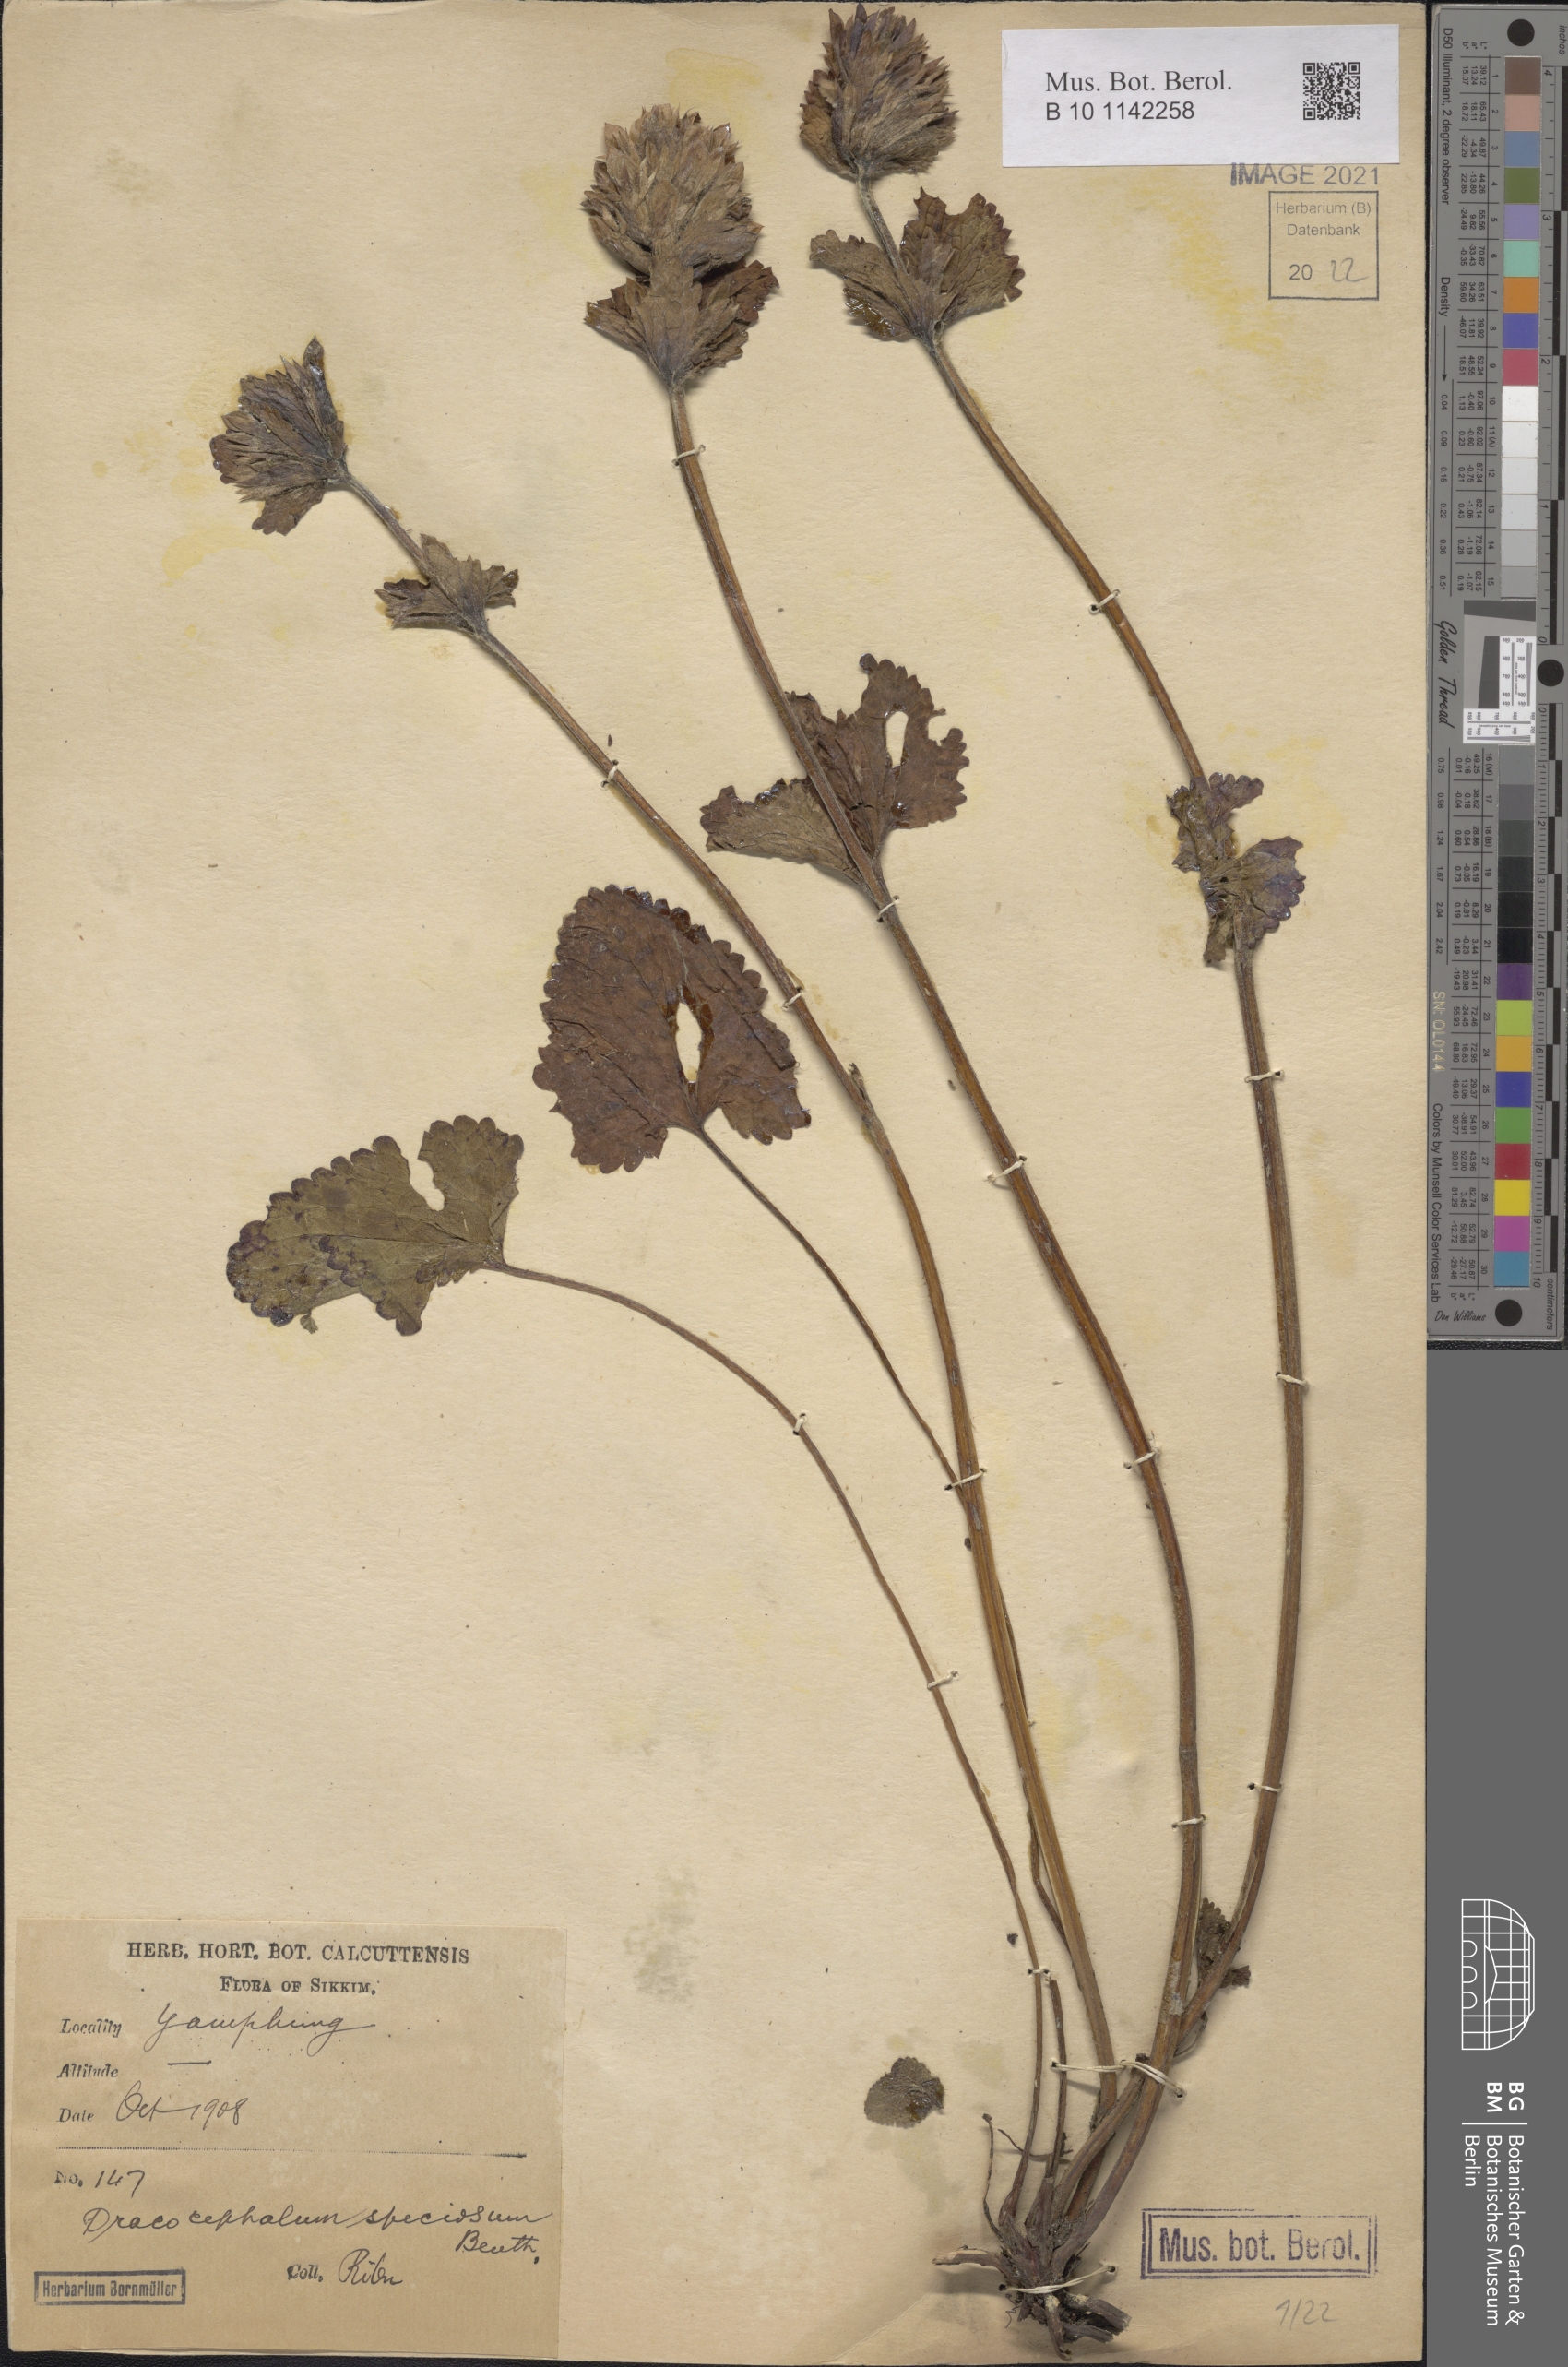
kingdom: Plantae
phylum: Tracheophyta
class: Magnoliopsida
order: Lamiales
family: Lamiaceae
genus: Dracocephalum
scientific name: Dracocephalum wallichii
